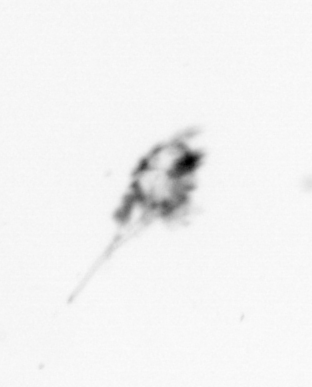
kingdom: Animalia
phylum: Arthropoda
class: Copepoda
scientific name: Copepoda
